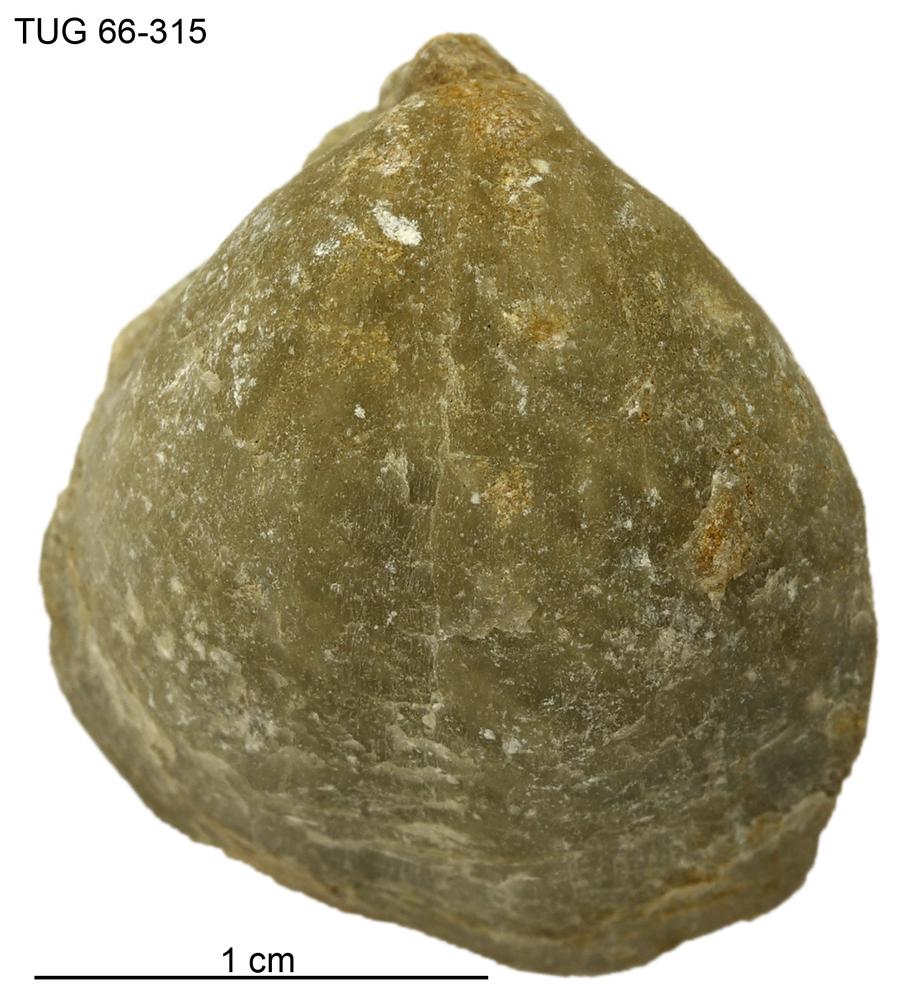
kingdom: Animalia
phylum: Brachiopoda
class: Rhynchonellata
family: Virgianidae
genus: Borealis
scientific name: Borealis
